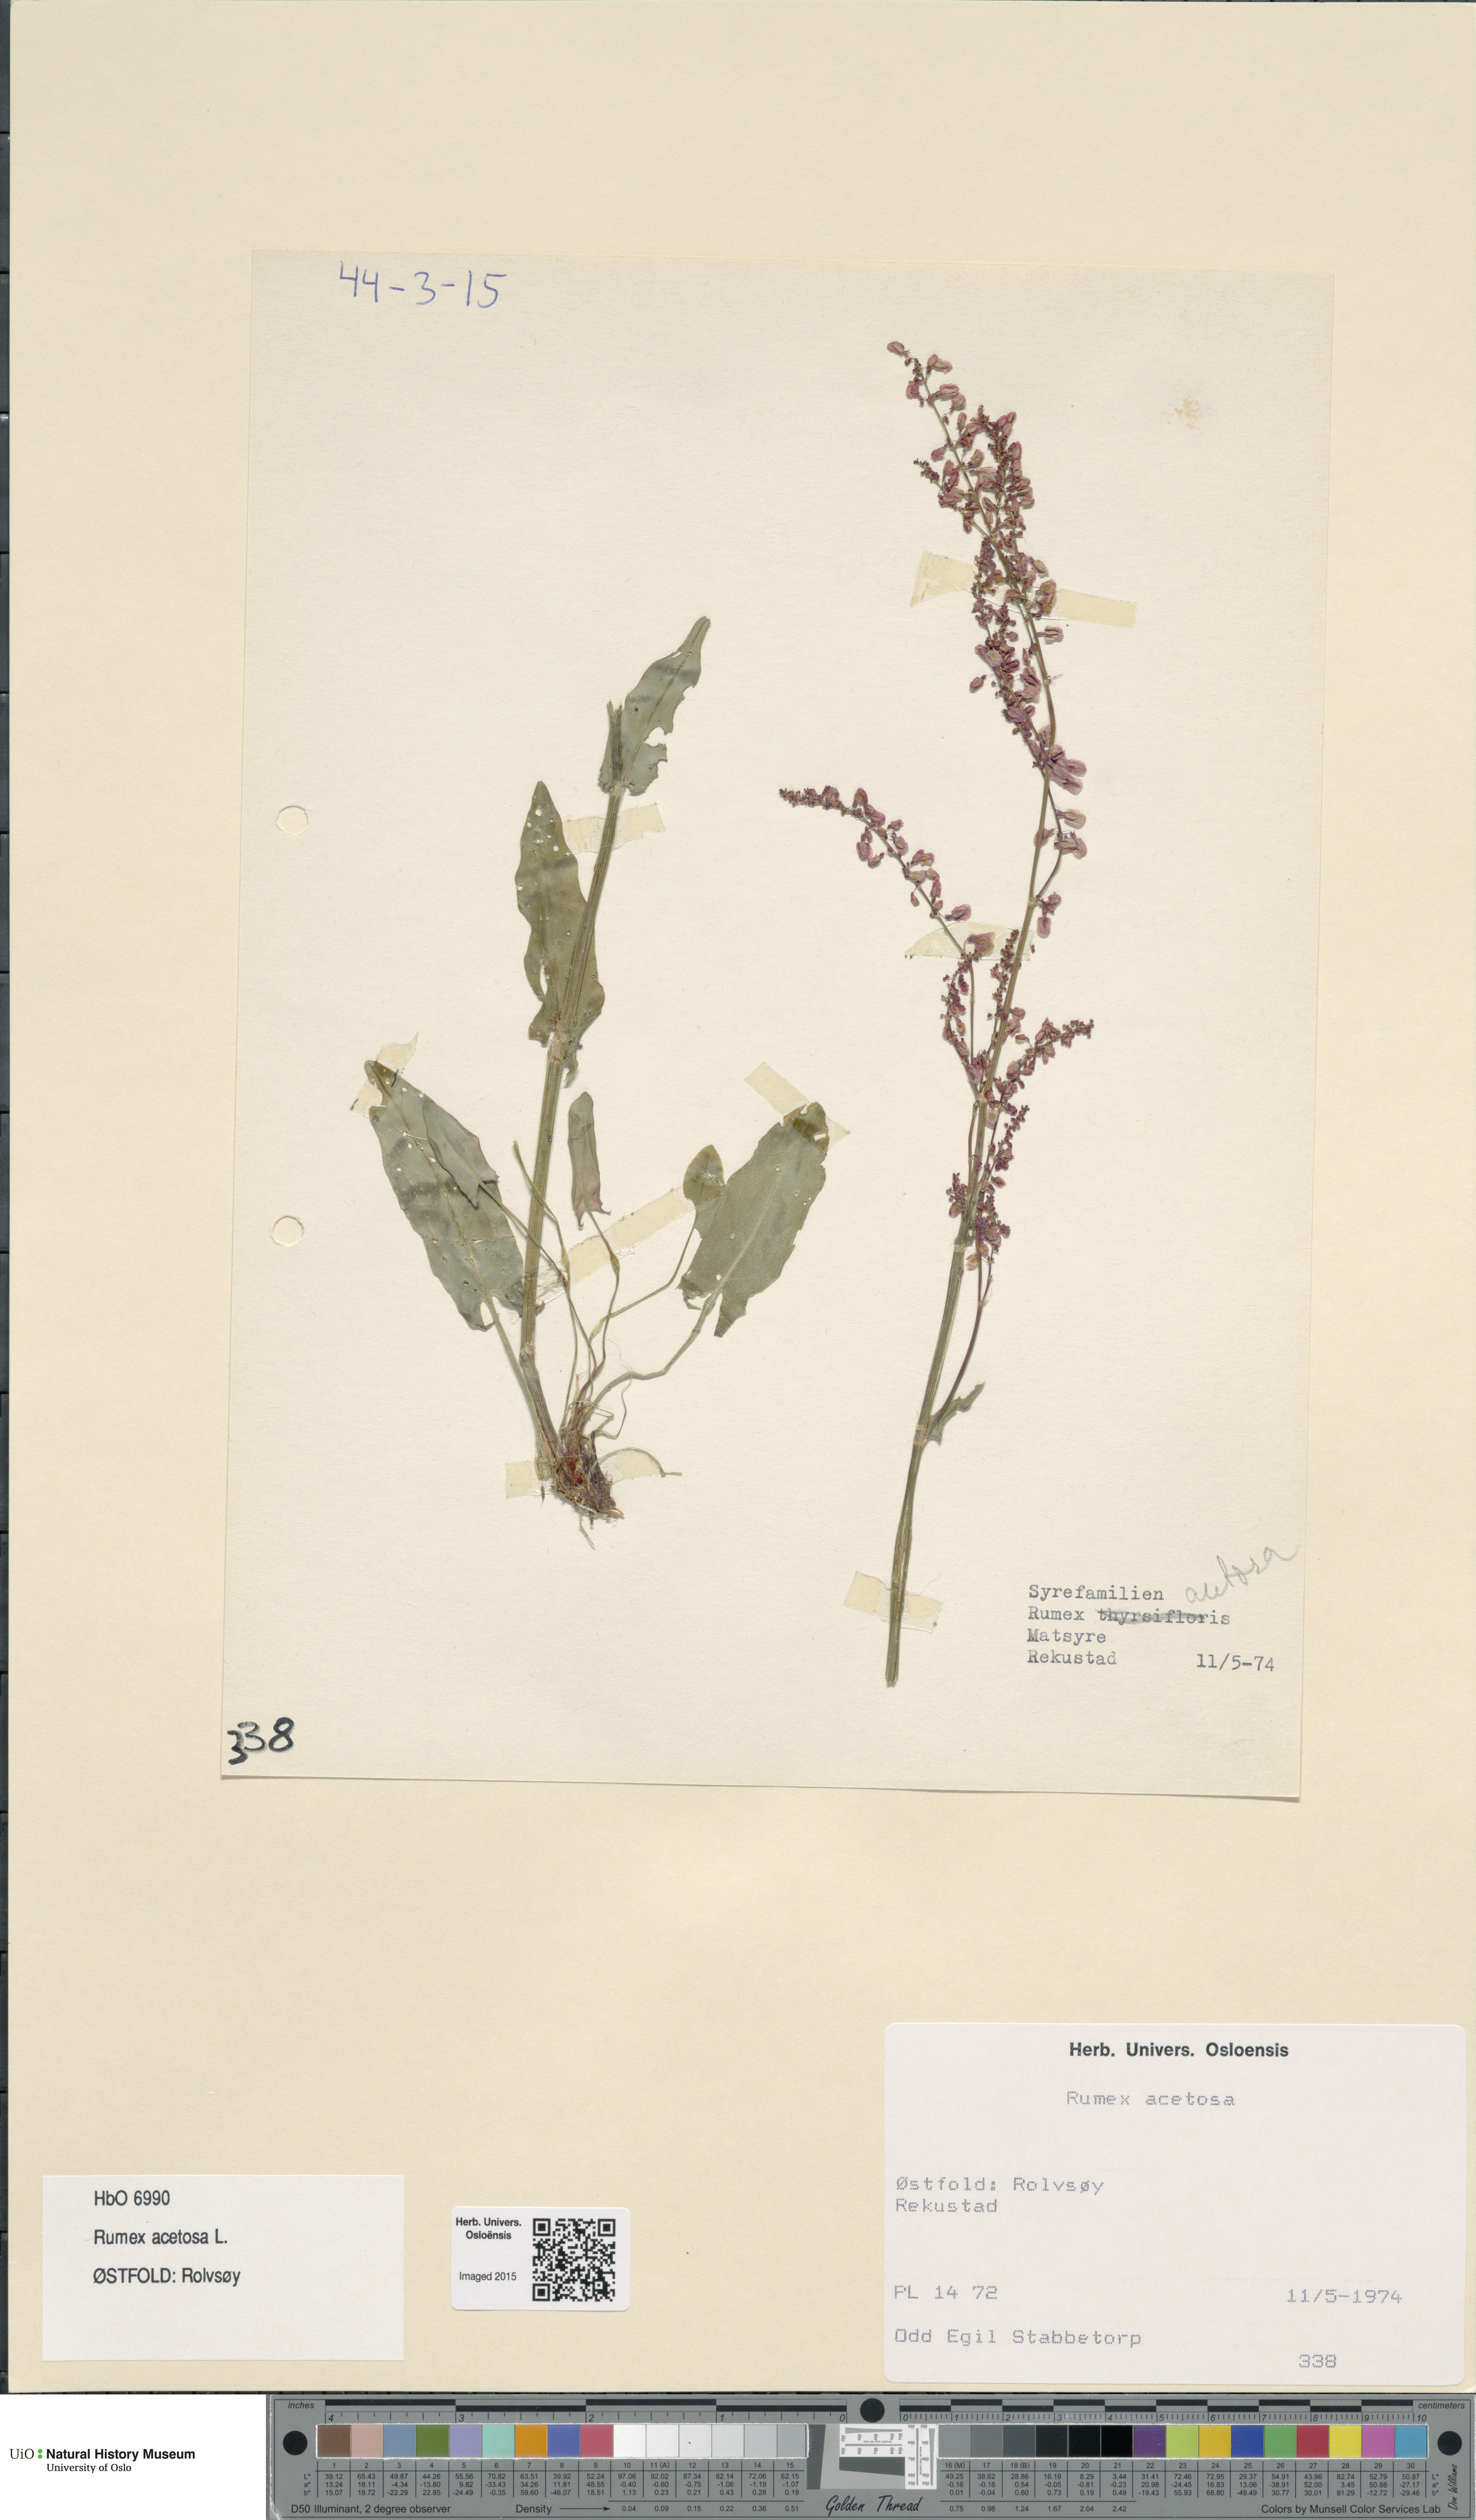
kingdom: Plantae
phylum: Tracheophyta
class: Magnoliopsida
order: Caryophyllales
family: Polygonaceae
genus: Rumex
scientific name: Rumex acetosa
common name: Garden sorrel
